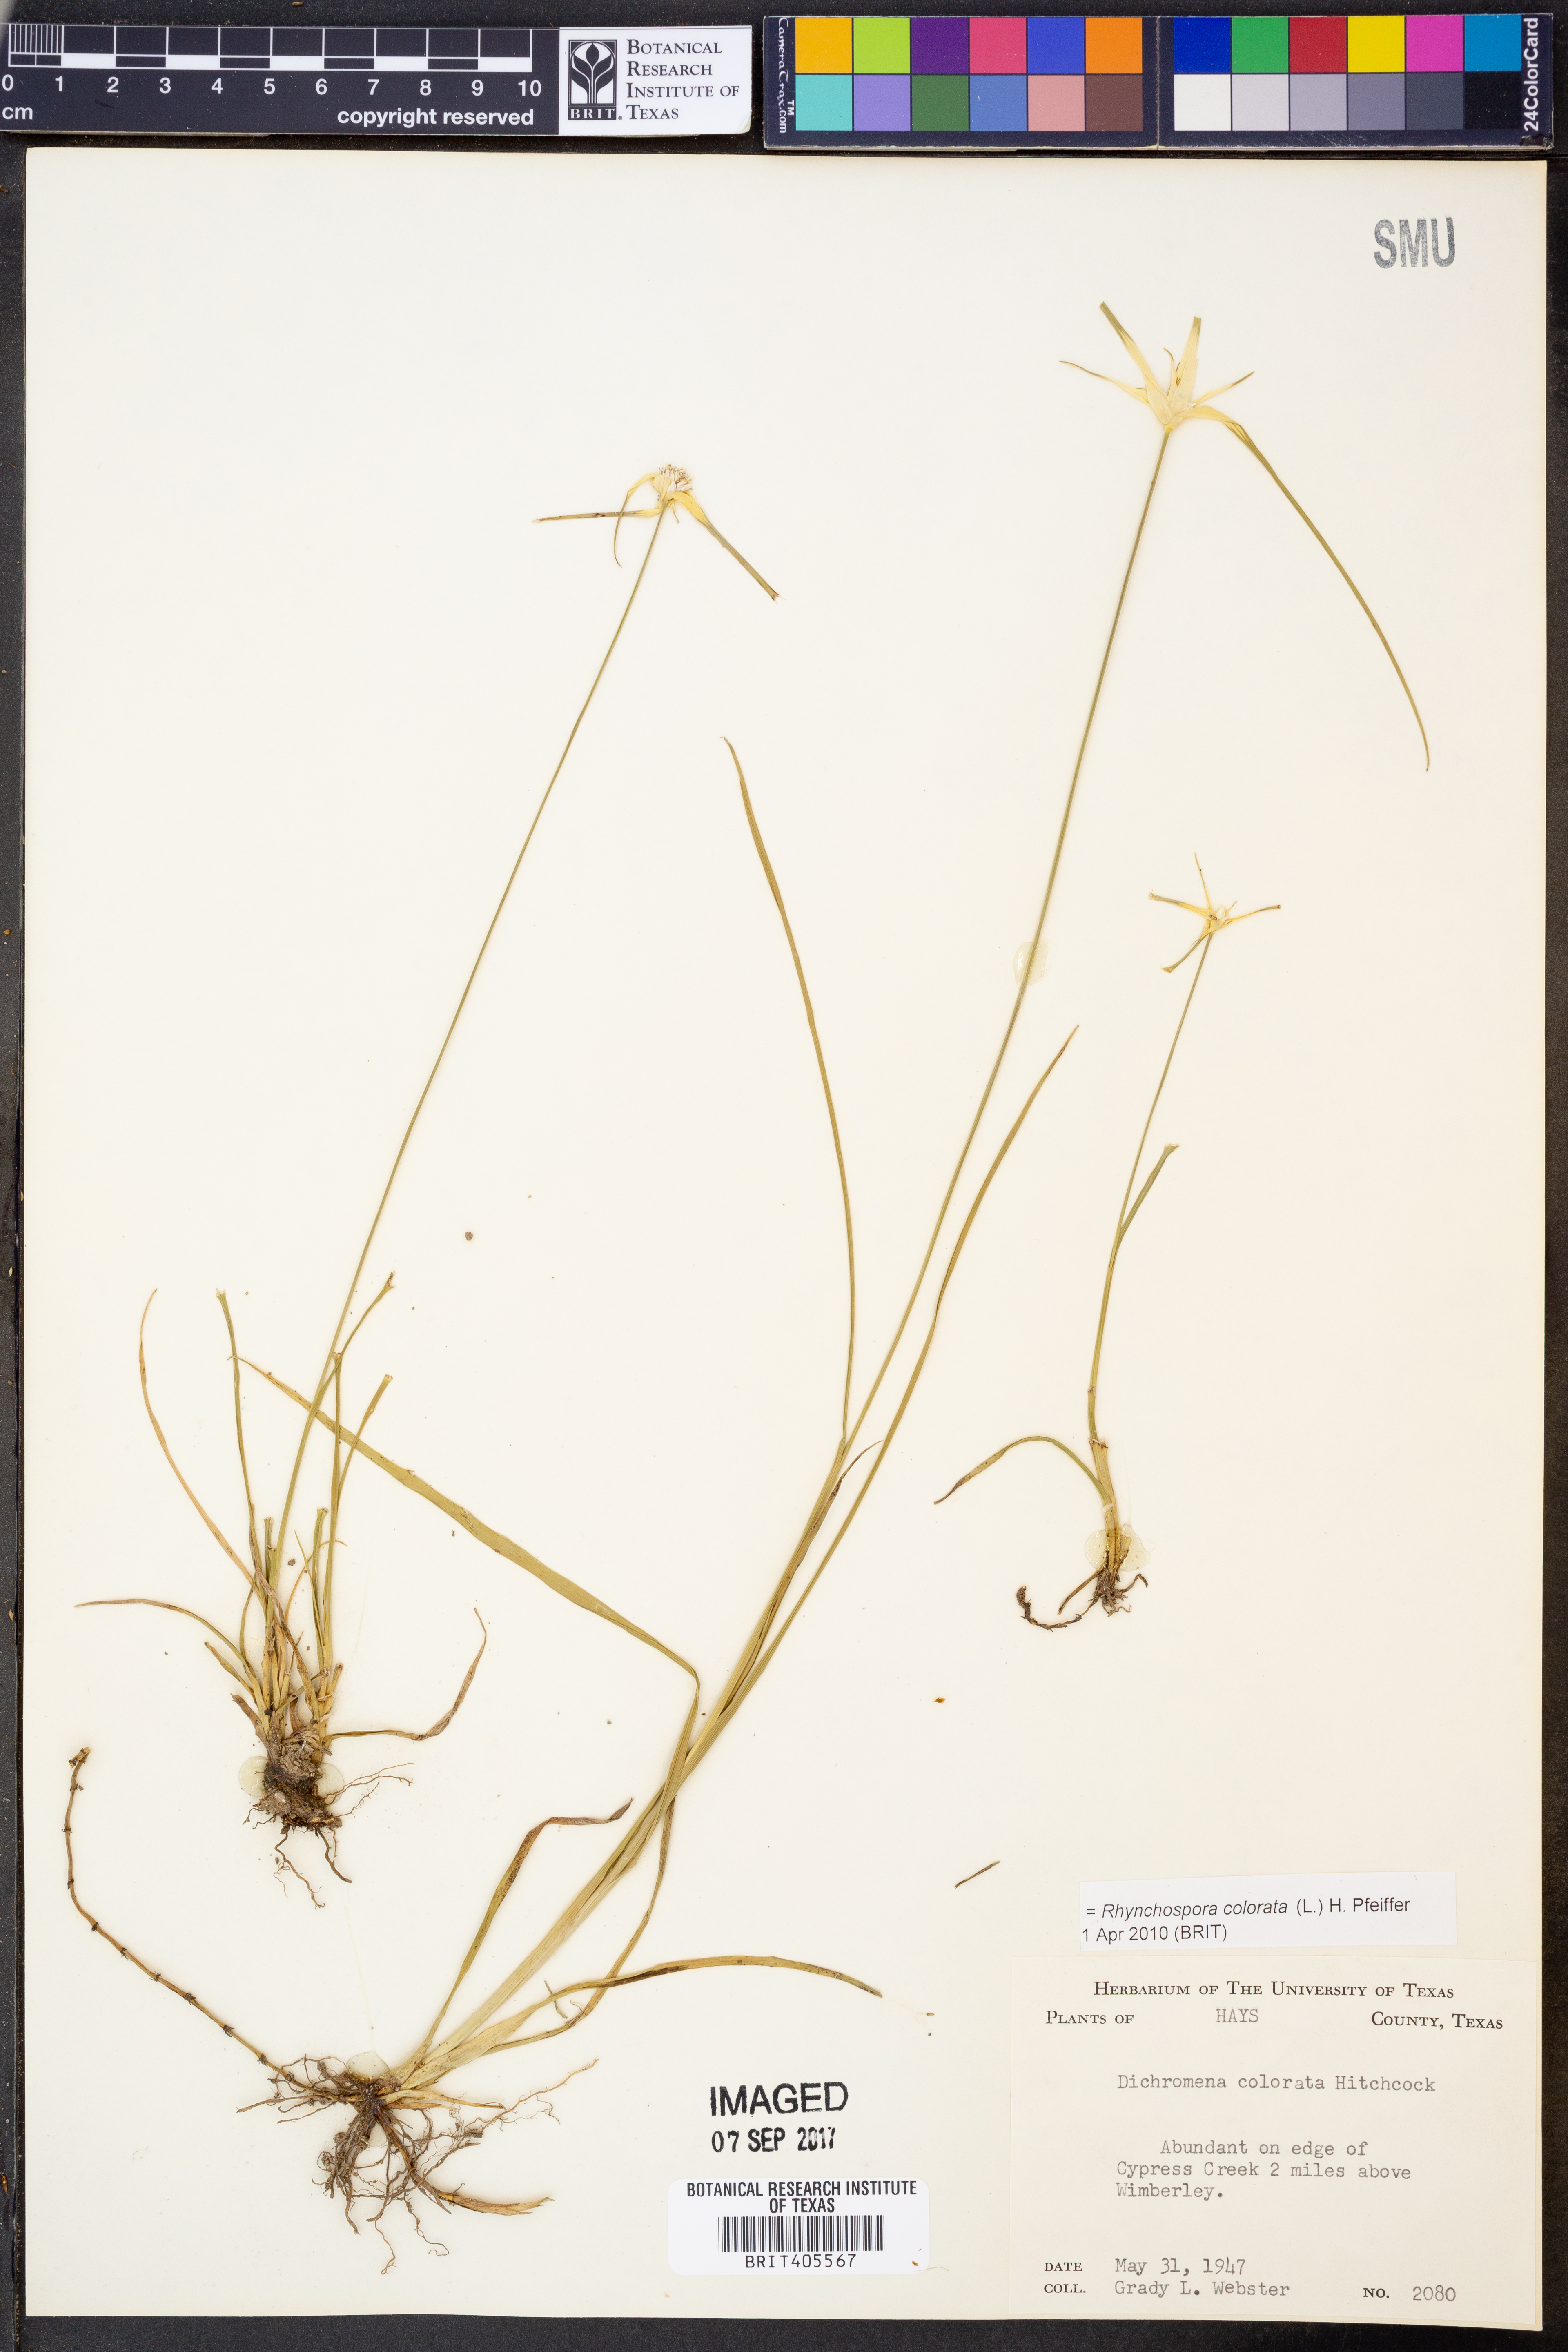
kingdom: Plantae
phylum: Tracheophyta
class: Liliopsida
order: Poales
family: Cyperaceae
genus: Rhynchospora
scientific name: Rhynchospora colorata
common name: Star sedge
